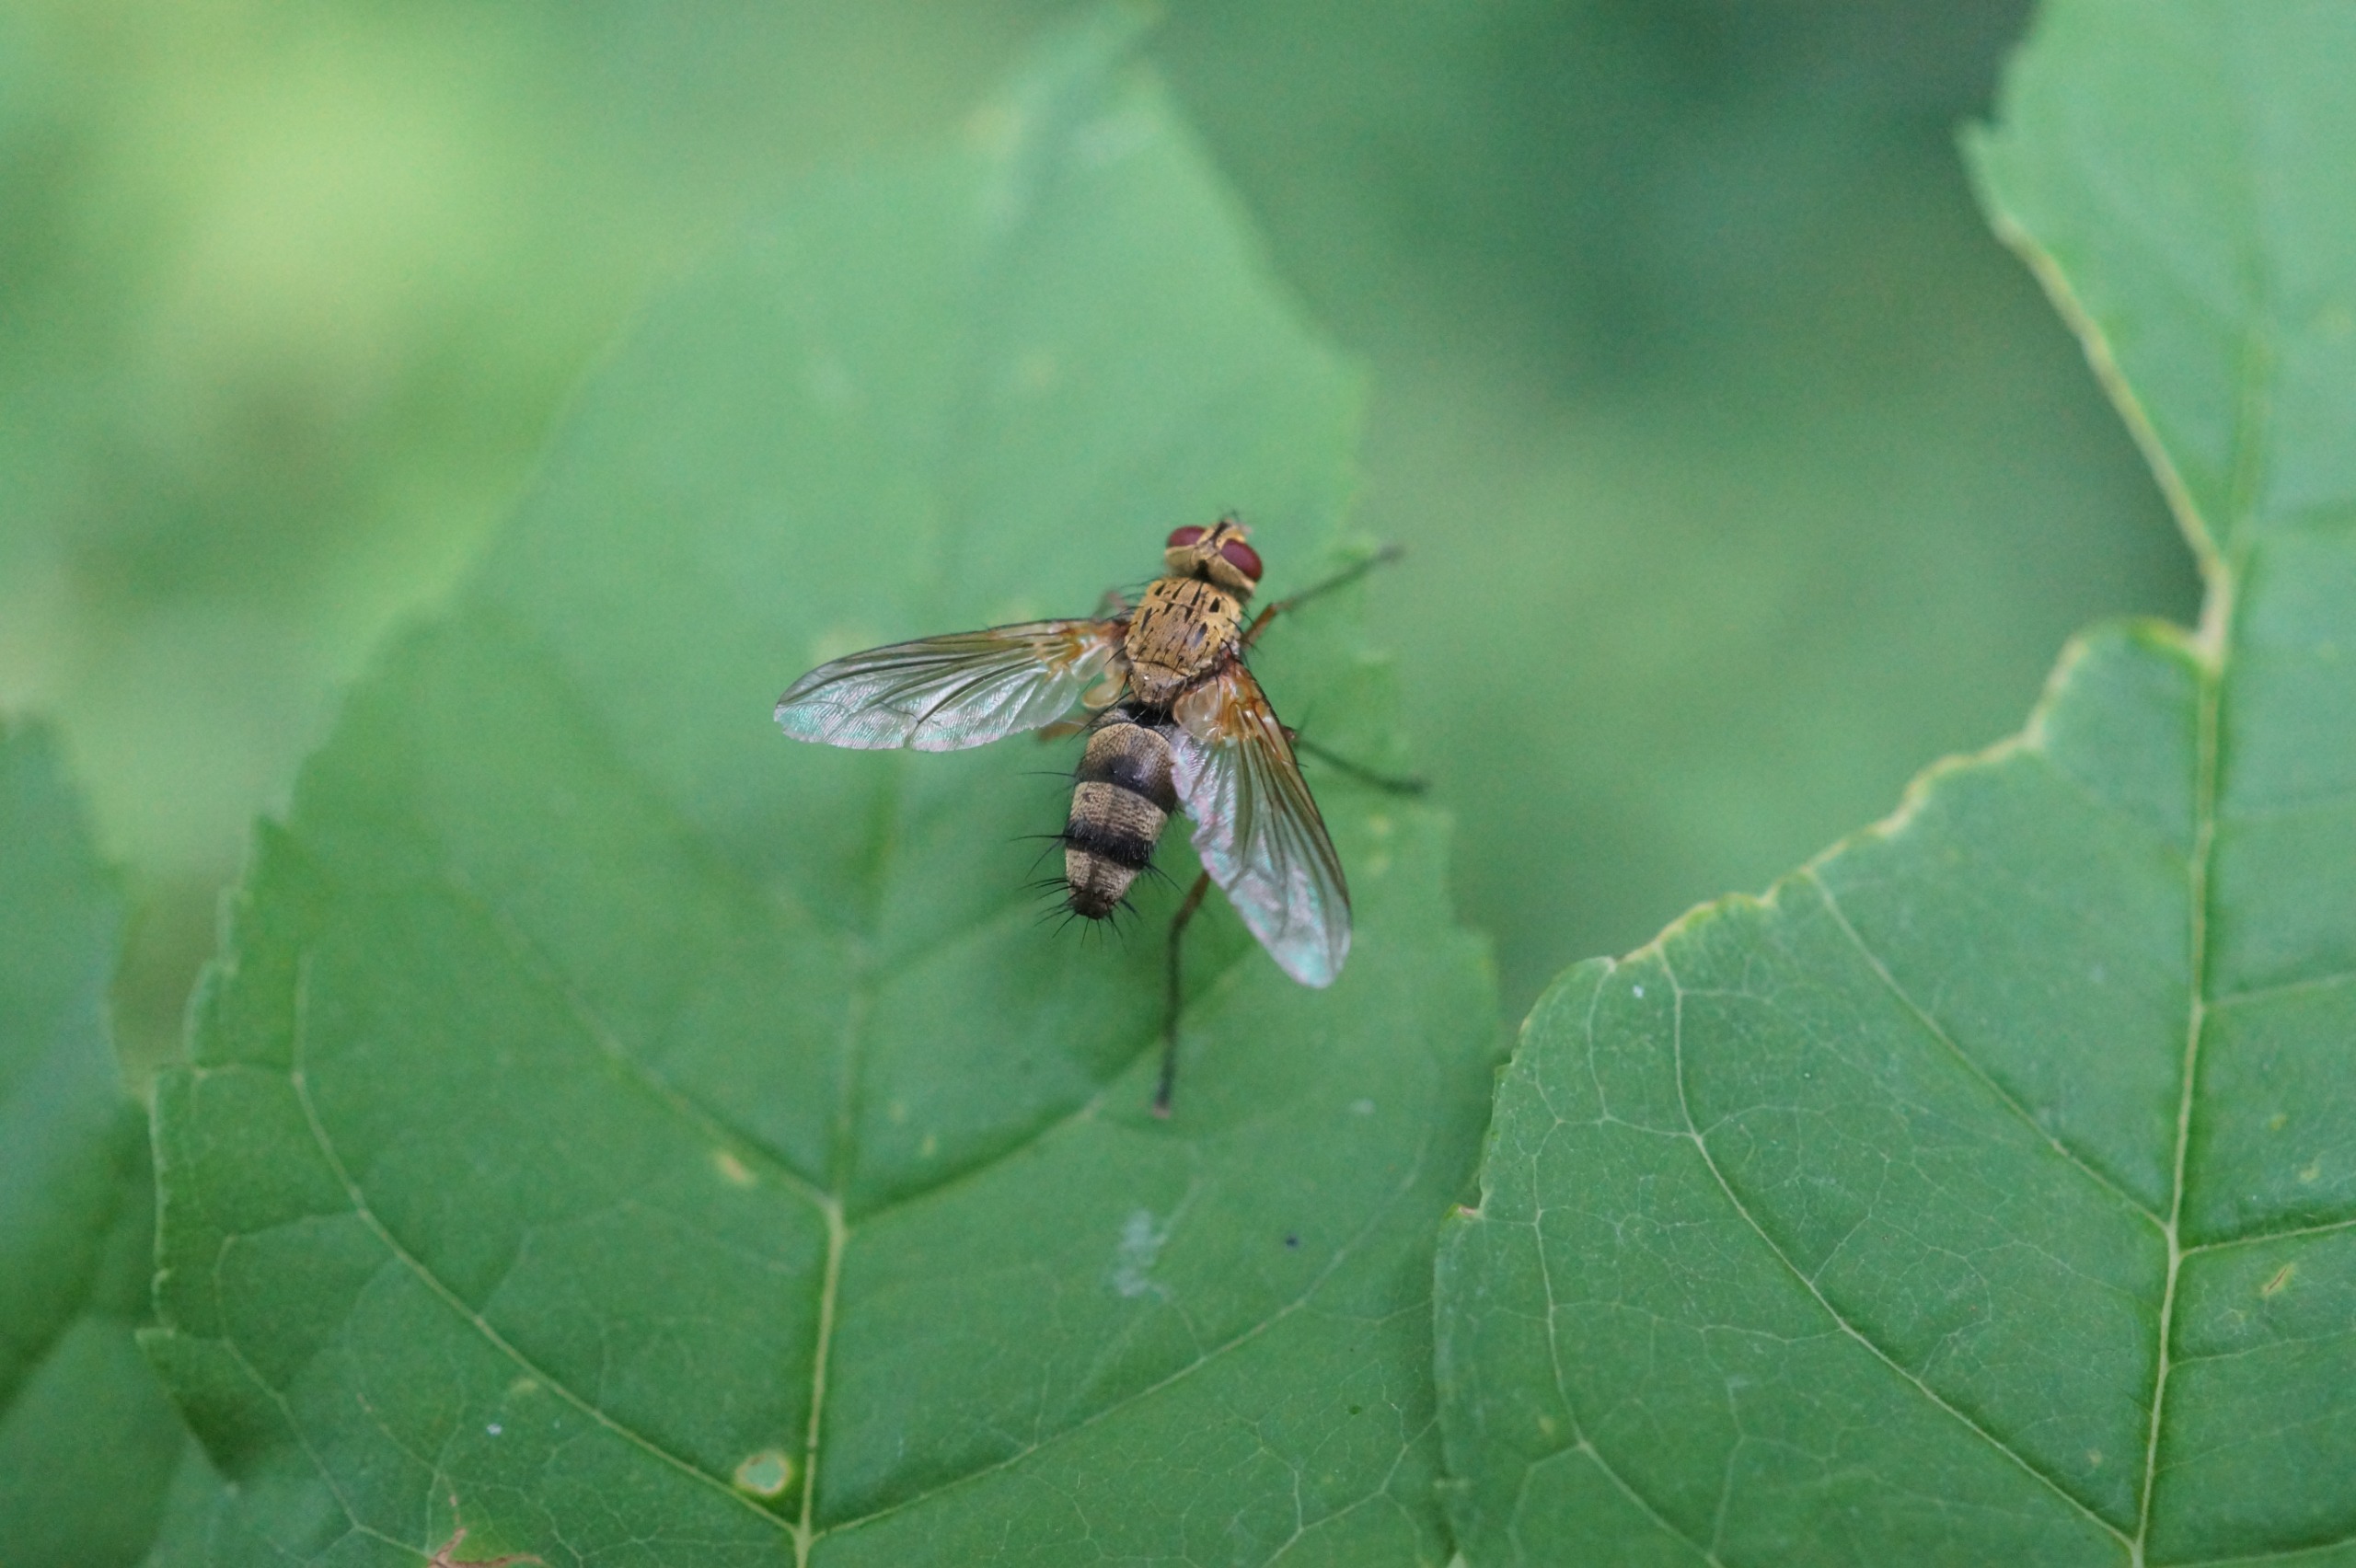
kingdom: Animalia
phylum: Arthropoda
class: Insecta
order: Diptera
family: Tachinidae
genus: Dexiosoma
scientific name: Dexiosoma caninum
